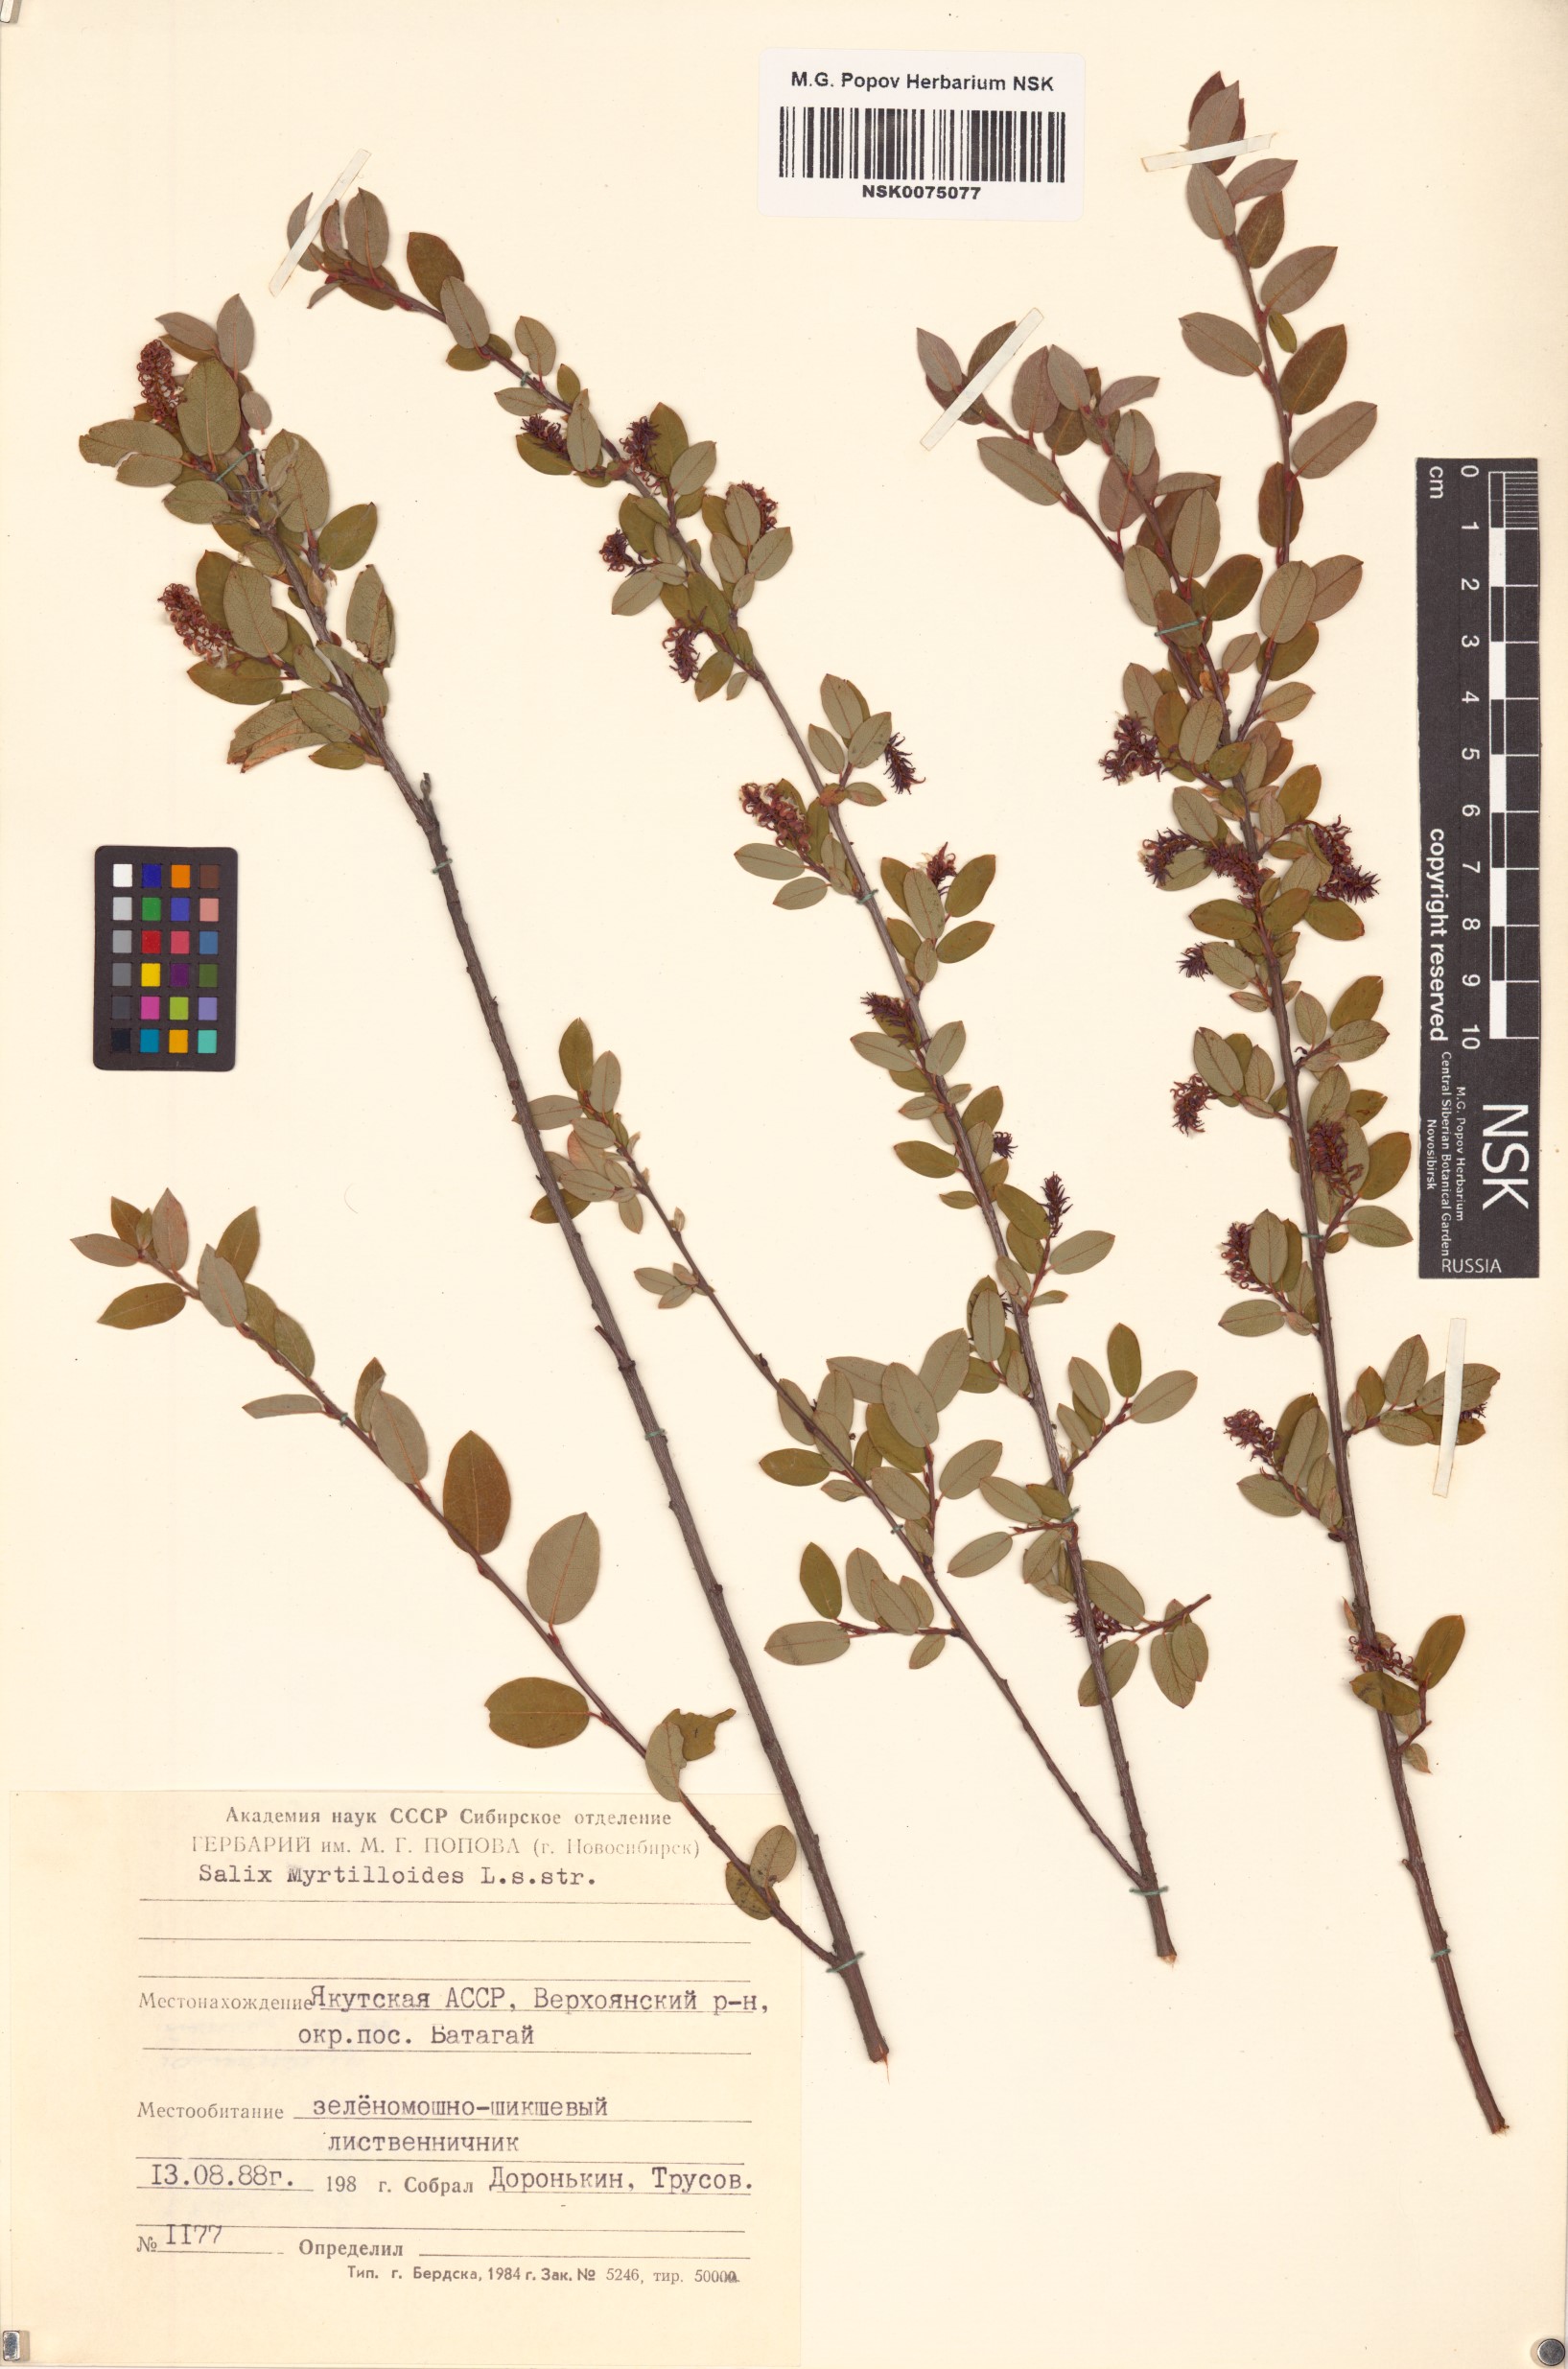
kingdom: Plantae
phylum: Tracheophyta
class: Magnoliopsida
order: Malpighiales
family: Salicaceae
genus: Salix
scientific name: Salix myrtilloides
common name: Myrtle-leaved willow
